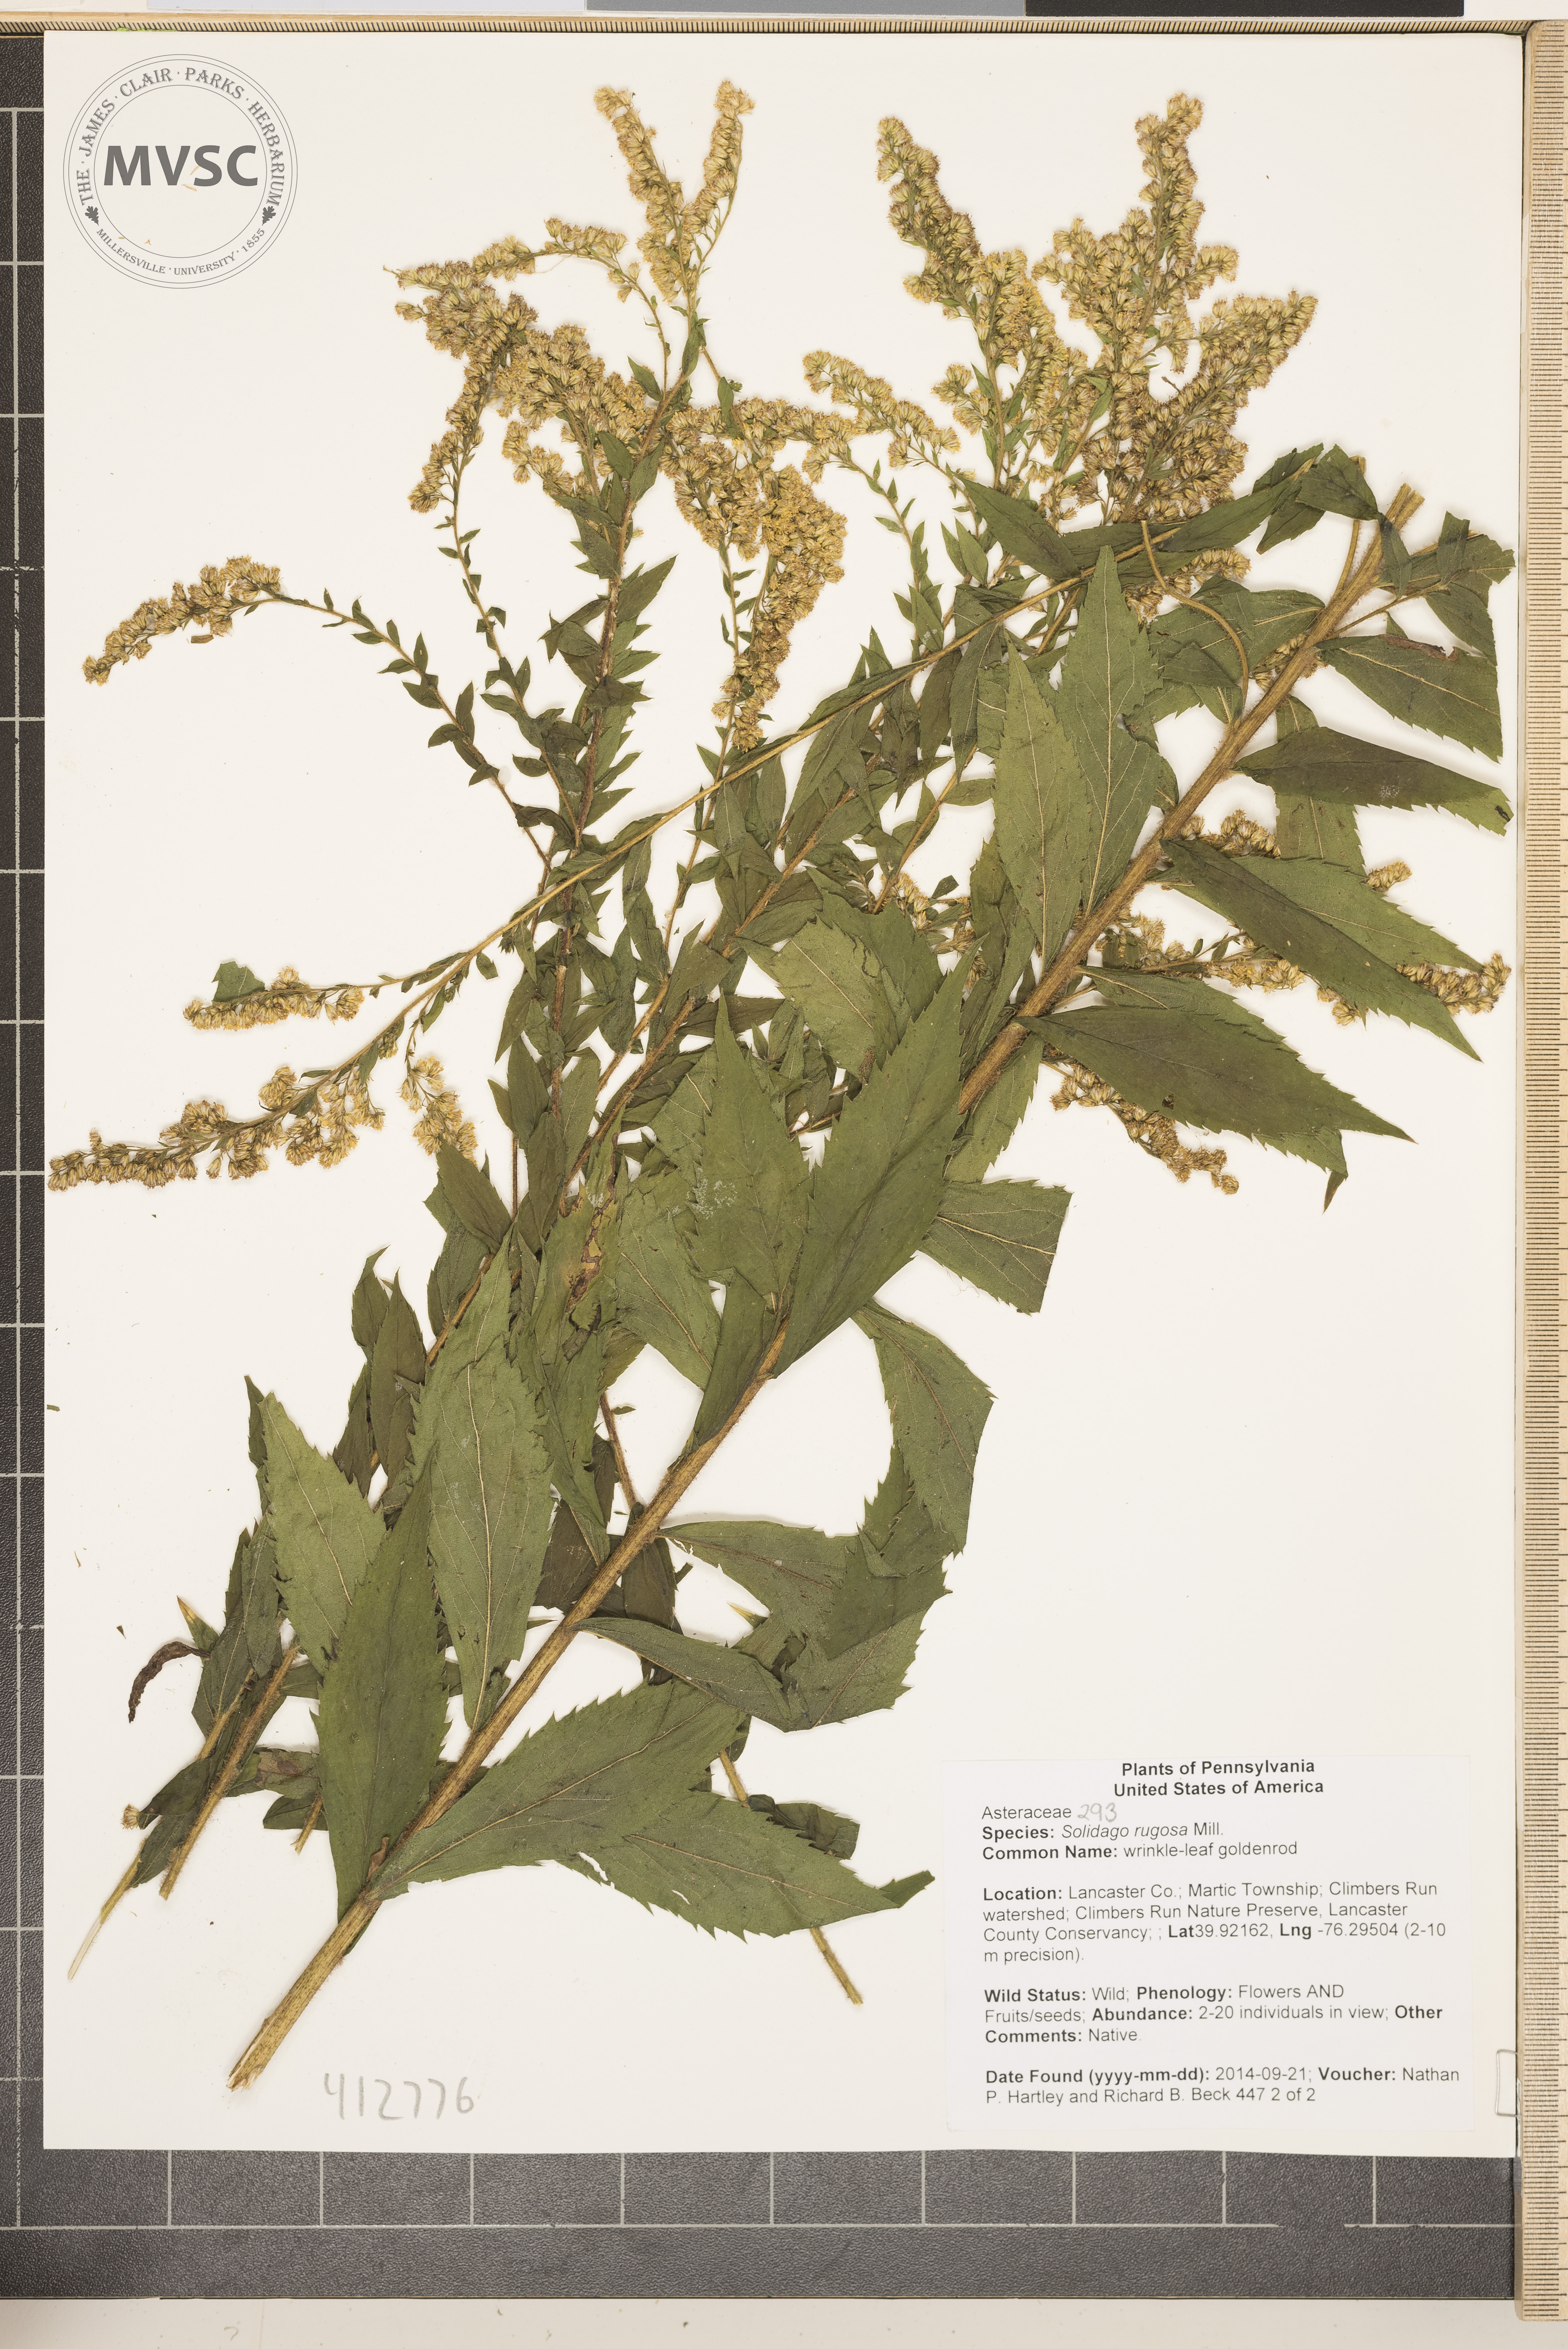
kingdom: Plantae
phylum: Tracheophyta
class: Magnoliopsida
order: Asterales
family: Asteraceae
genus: Solidago
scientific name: Solidago rugosa
